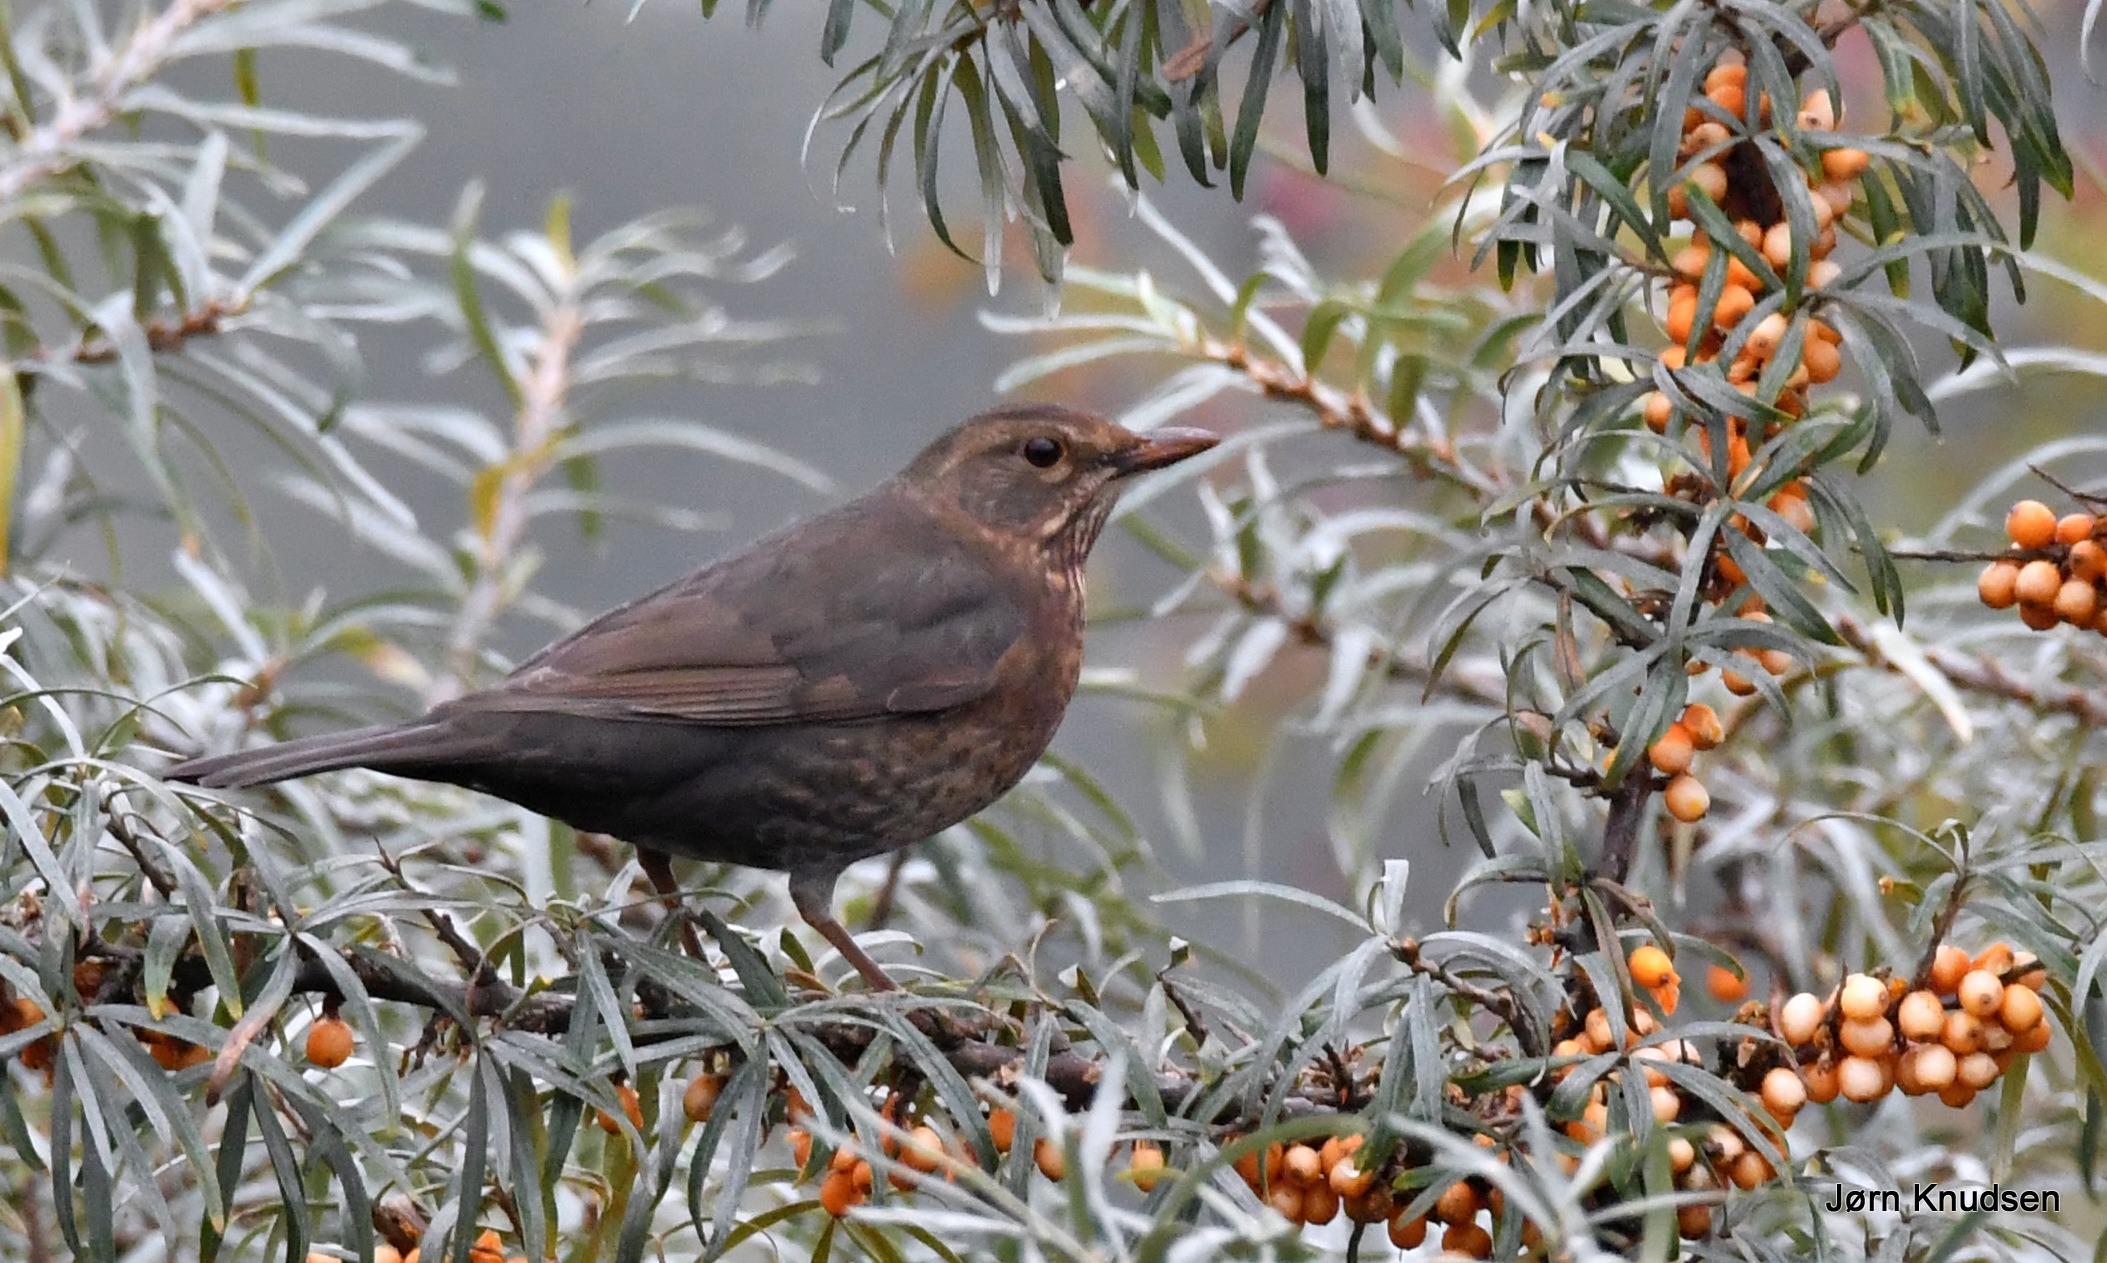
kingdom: Animalia
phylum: Chordata
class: Aves
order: Passeriformes
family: Turdidae
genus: Turdus
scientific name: Turdus merula
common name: Solsort
